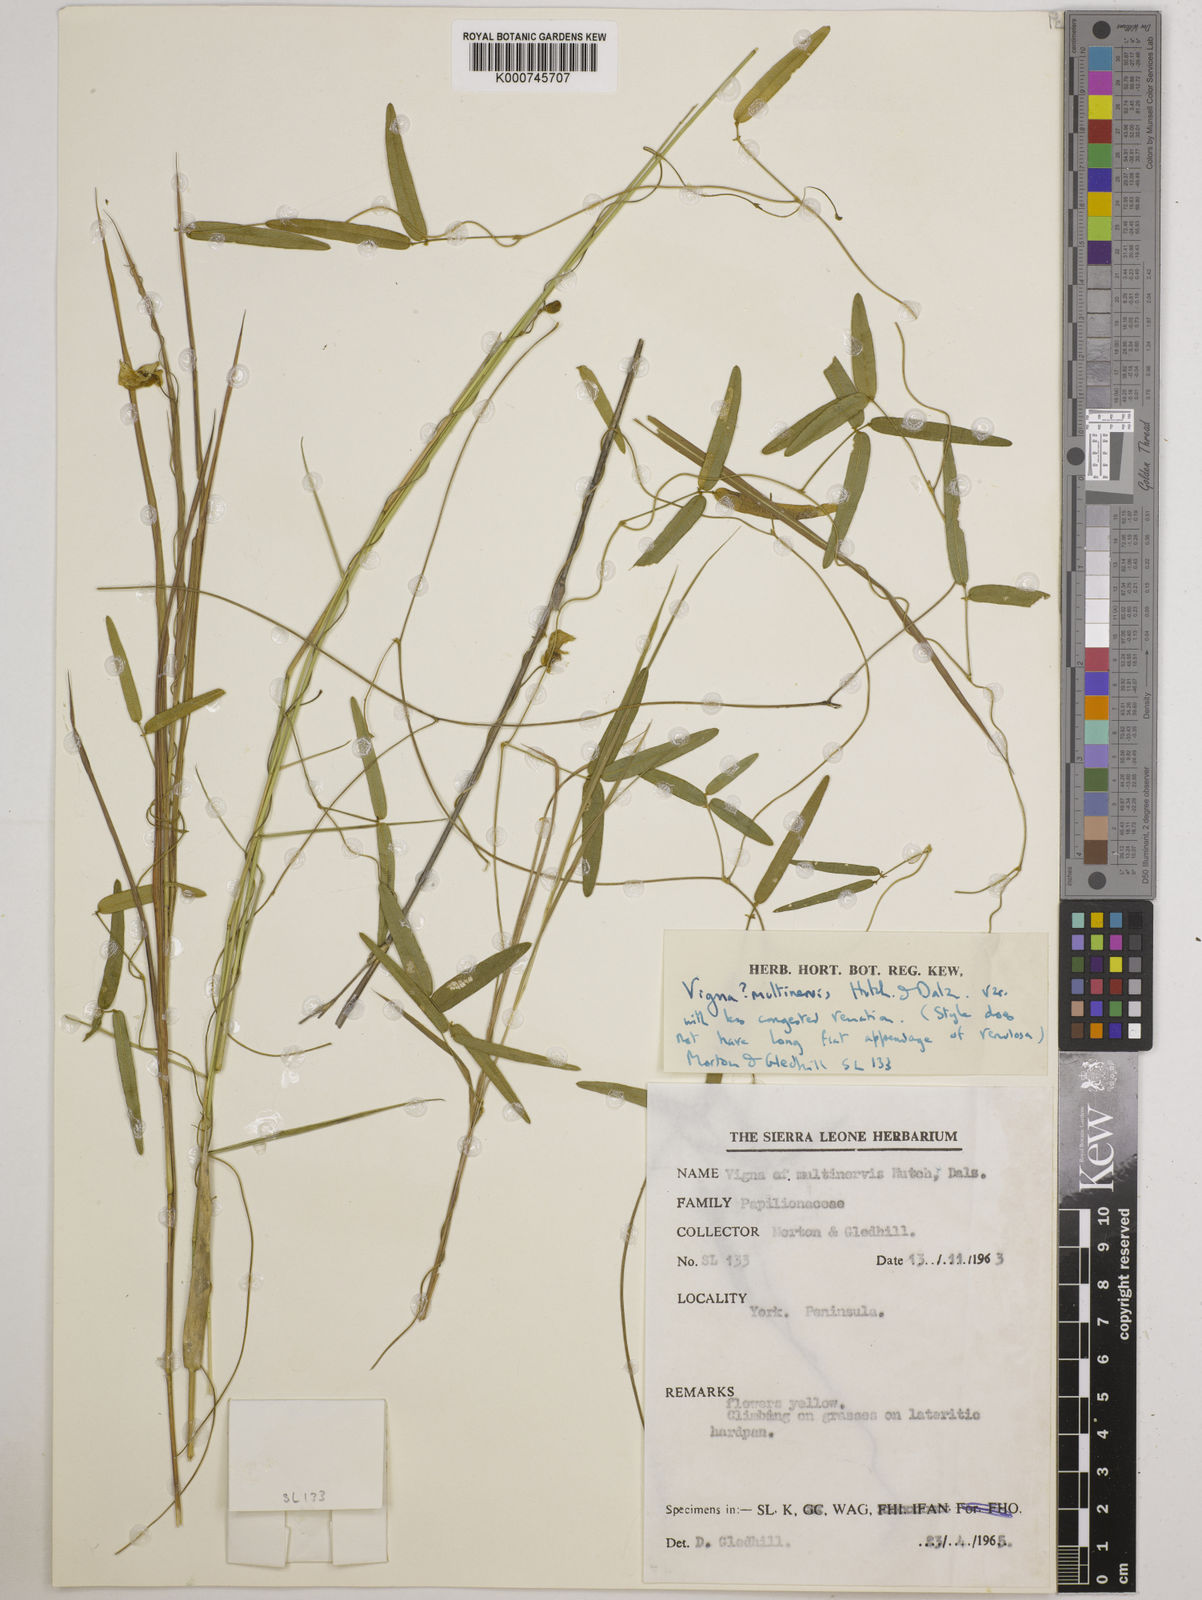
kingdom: Plantae
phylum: Tracheophyta
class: Magnoliopsida
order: Fabales
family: Fabaceae
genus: Vigna
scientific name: Vigna multinervis
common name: Fula-pulaar
